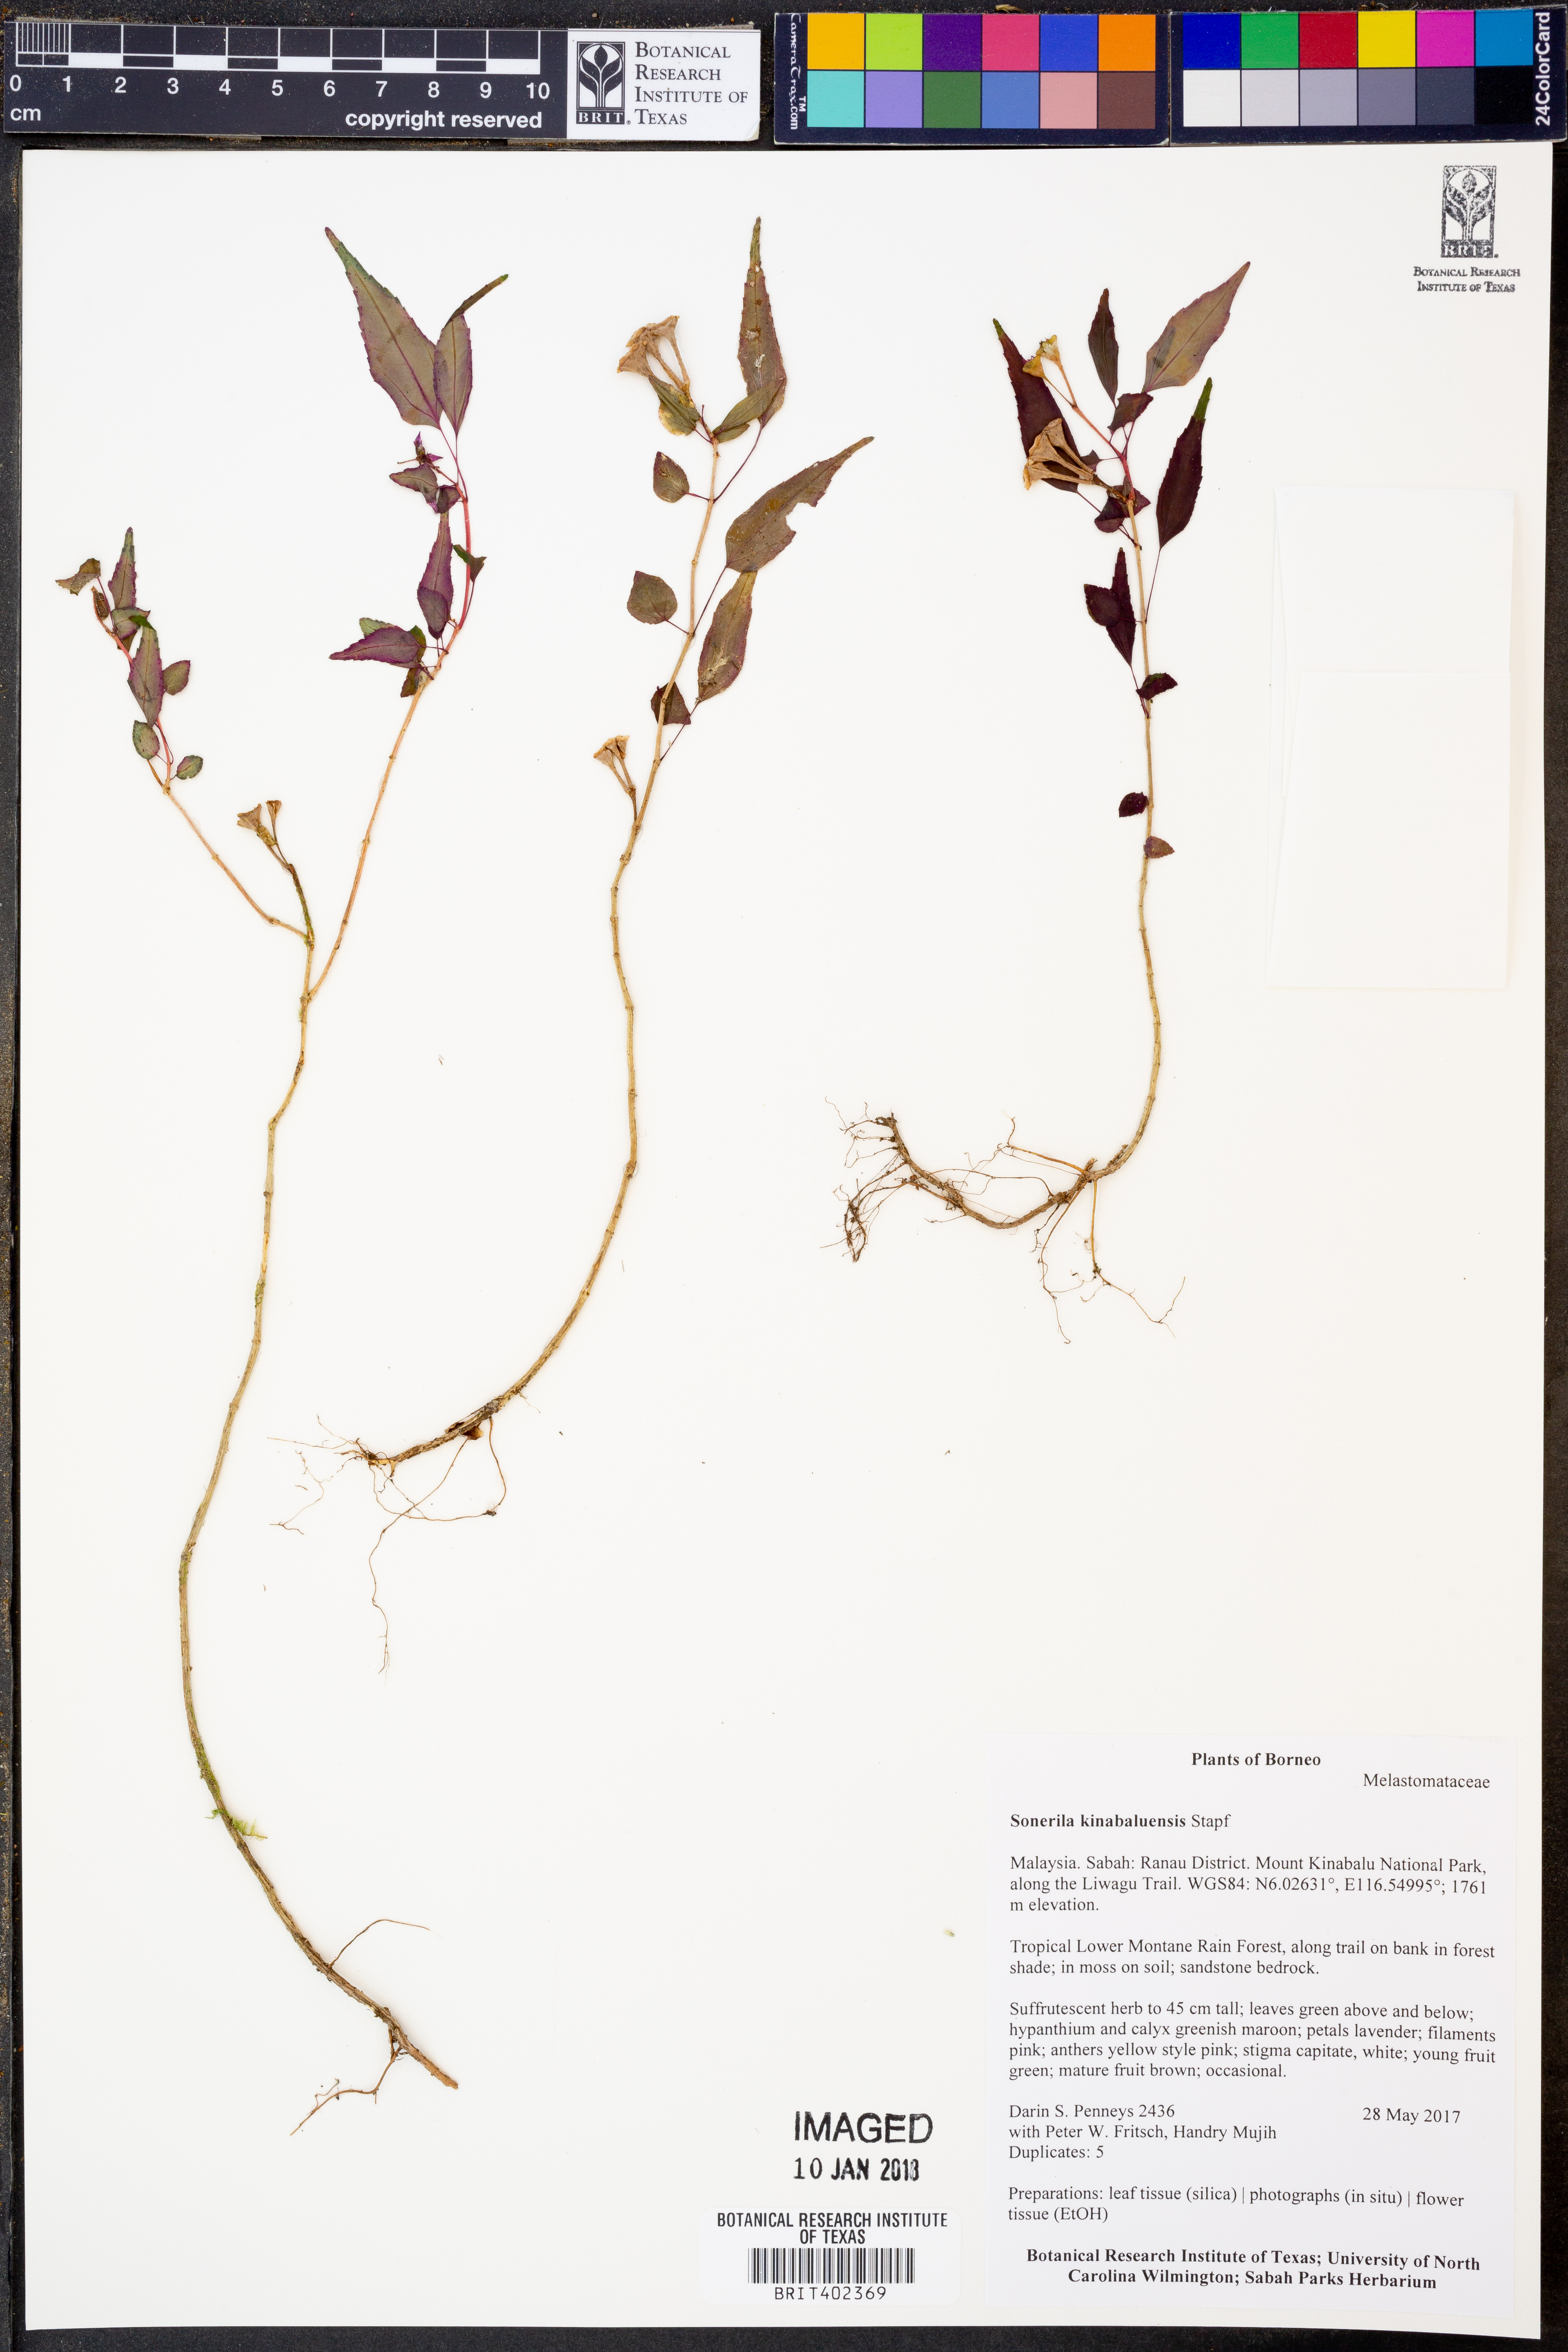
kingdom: Plantae
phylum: Tracheophyta
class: Magnoliopsida
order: Myrtales
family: Melastomataceae
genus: Sonerila
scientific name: Sonerila kinabaluensis
